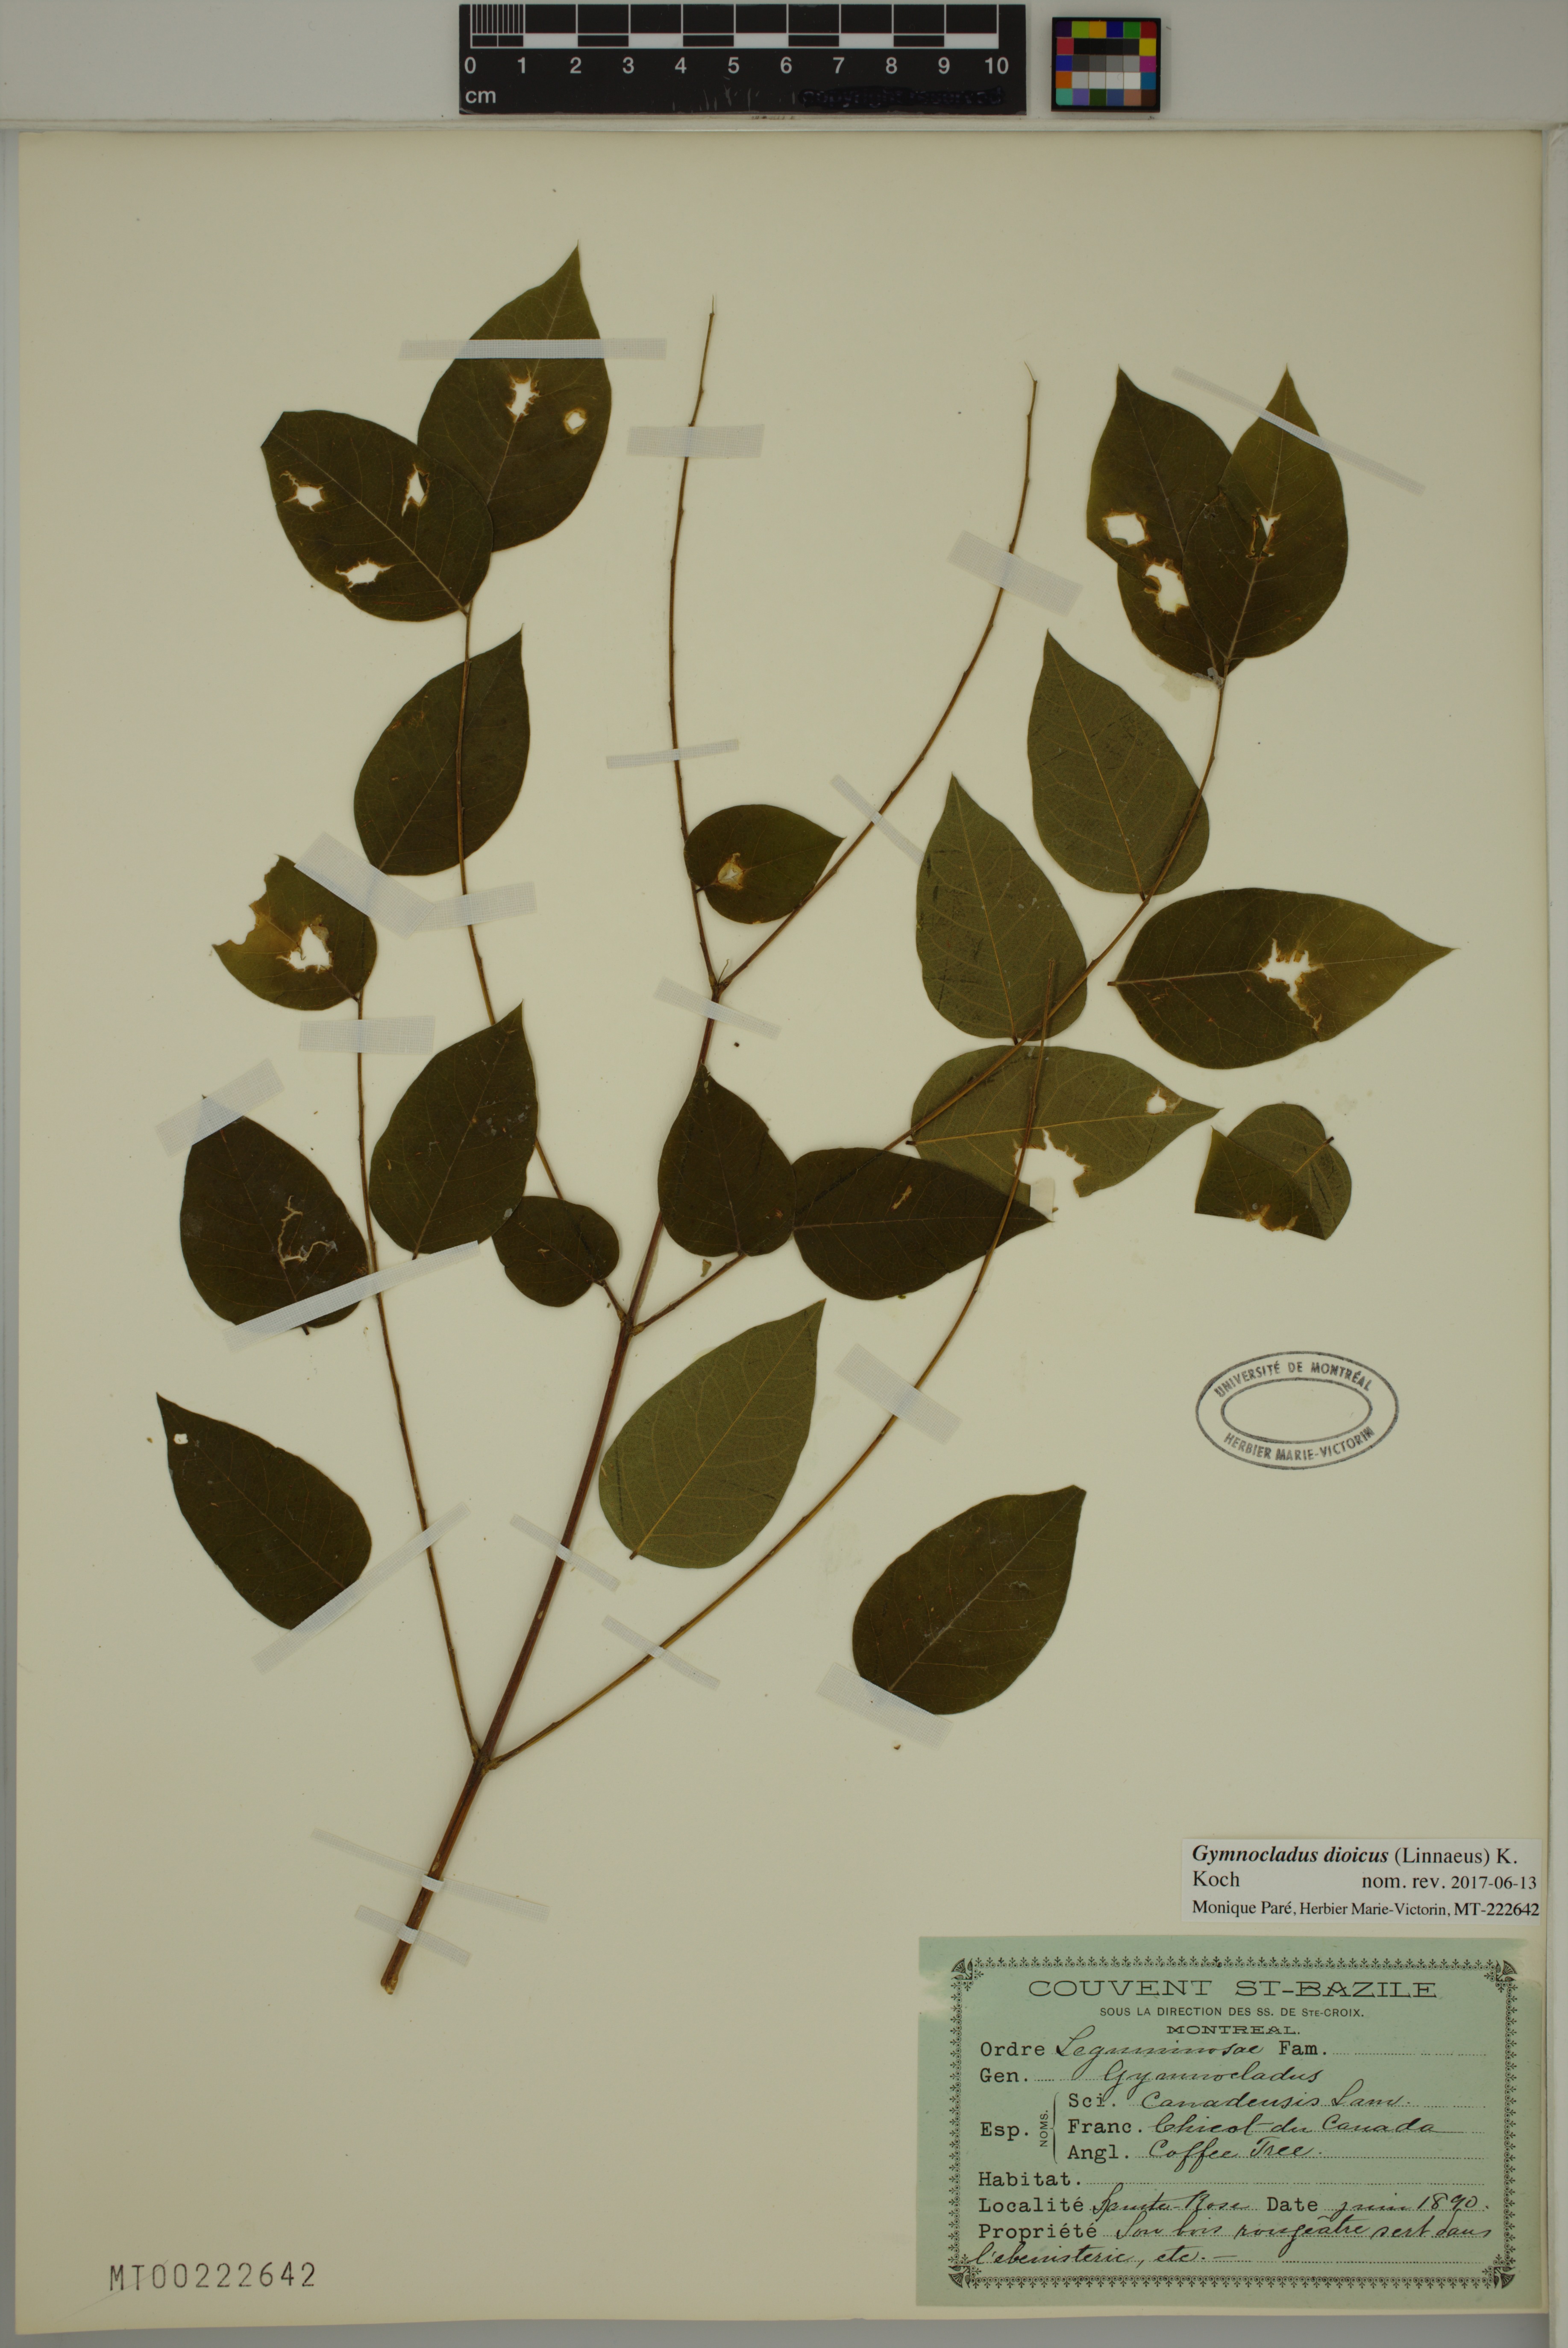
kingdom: Plantae
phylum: Tracheophyta
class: Magnoliopsida
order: Fabales
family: Fabaceae
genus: Gymnocladus
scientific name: Gymnocladus dioicus
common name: Kentucky coffee-tree
